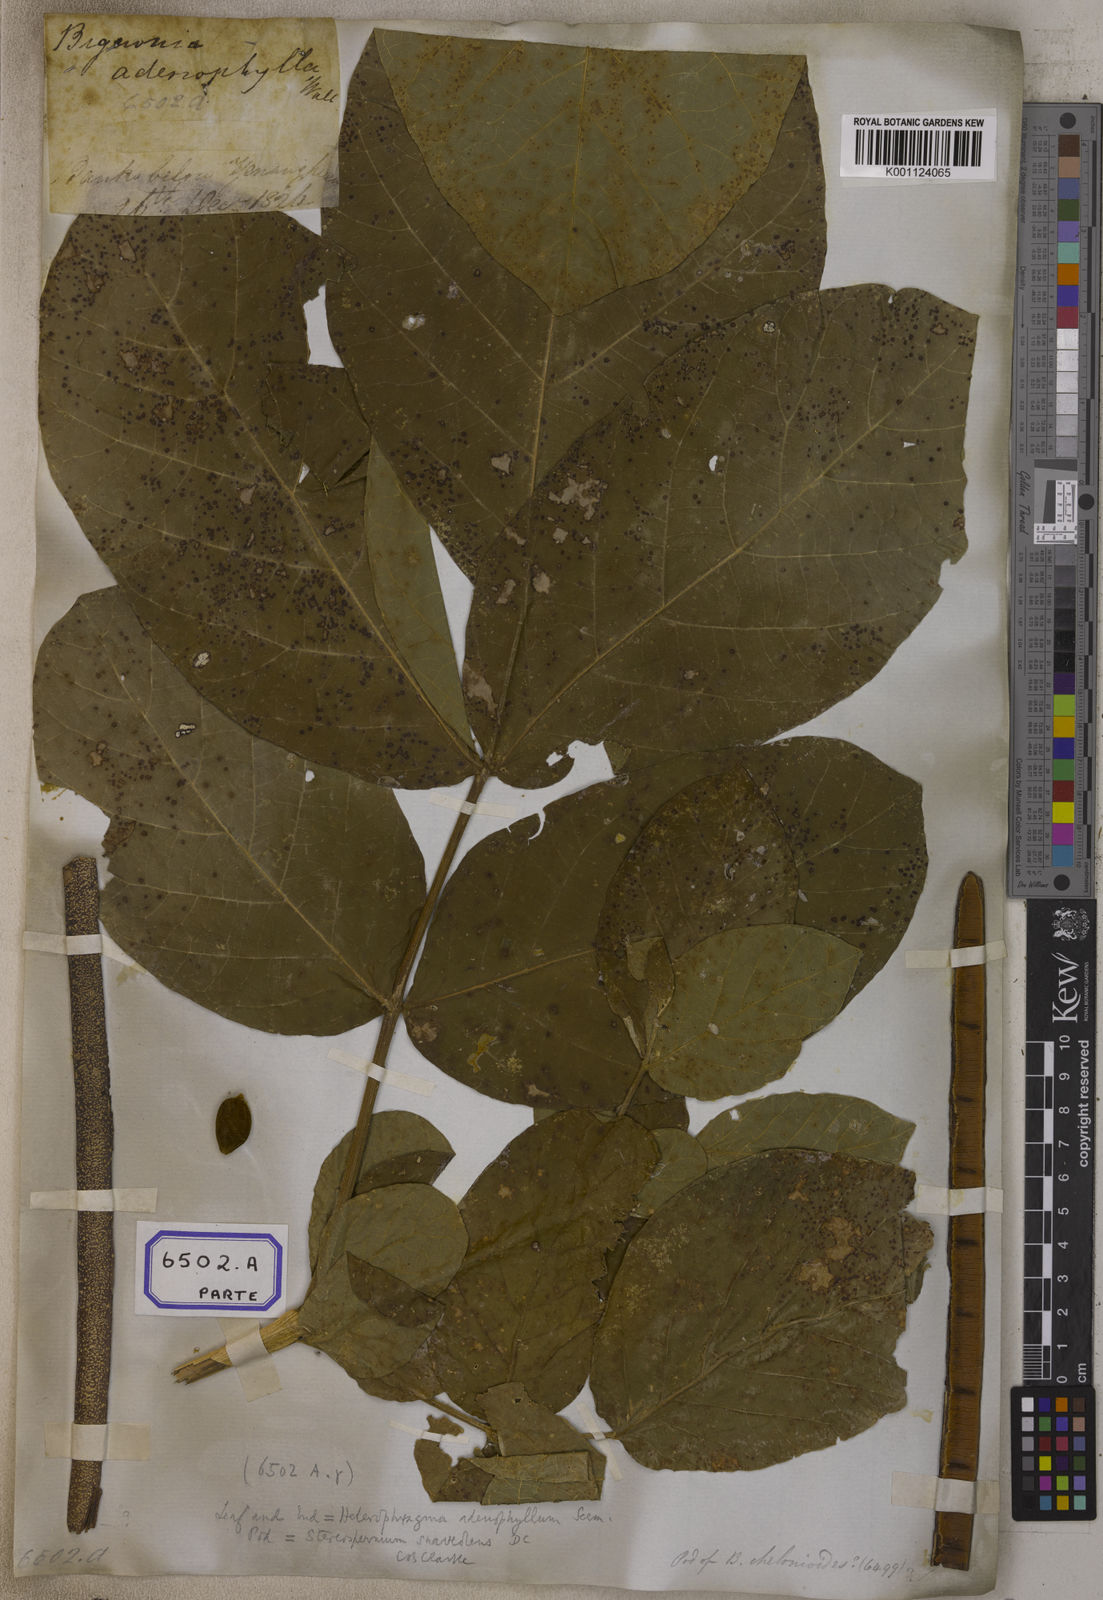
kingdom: Plantae
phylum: Tracheophyta
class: Magnoliopsida
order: Lamiales
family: Bignoniaceae
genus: Bignonia
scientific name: Bignonia
